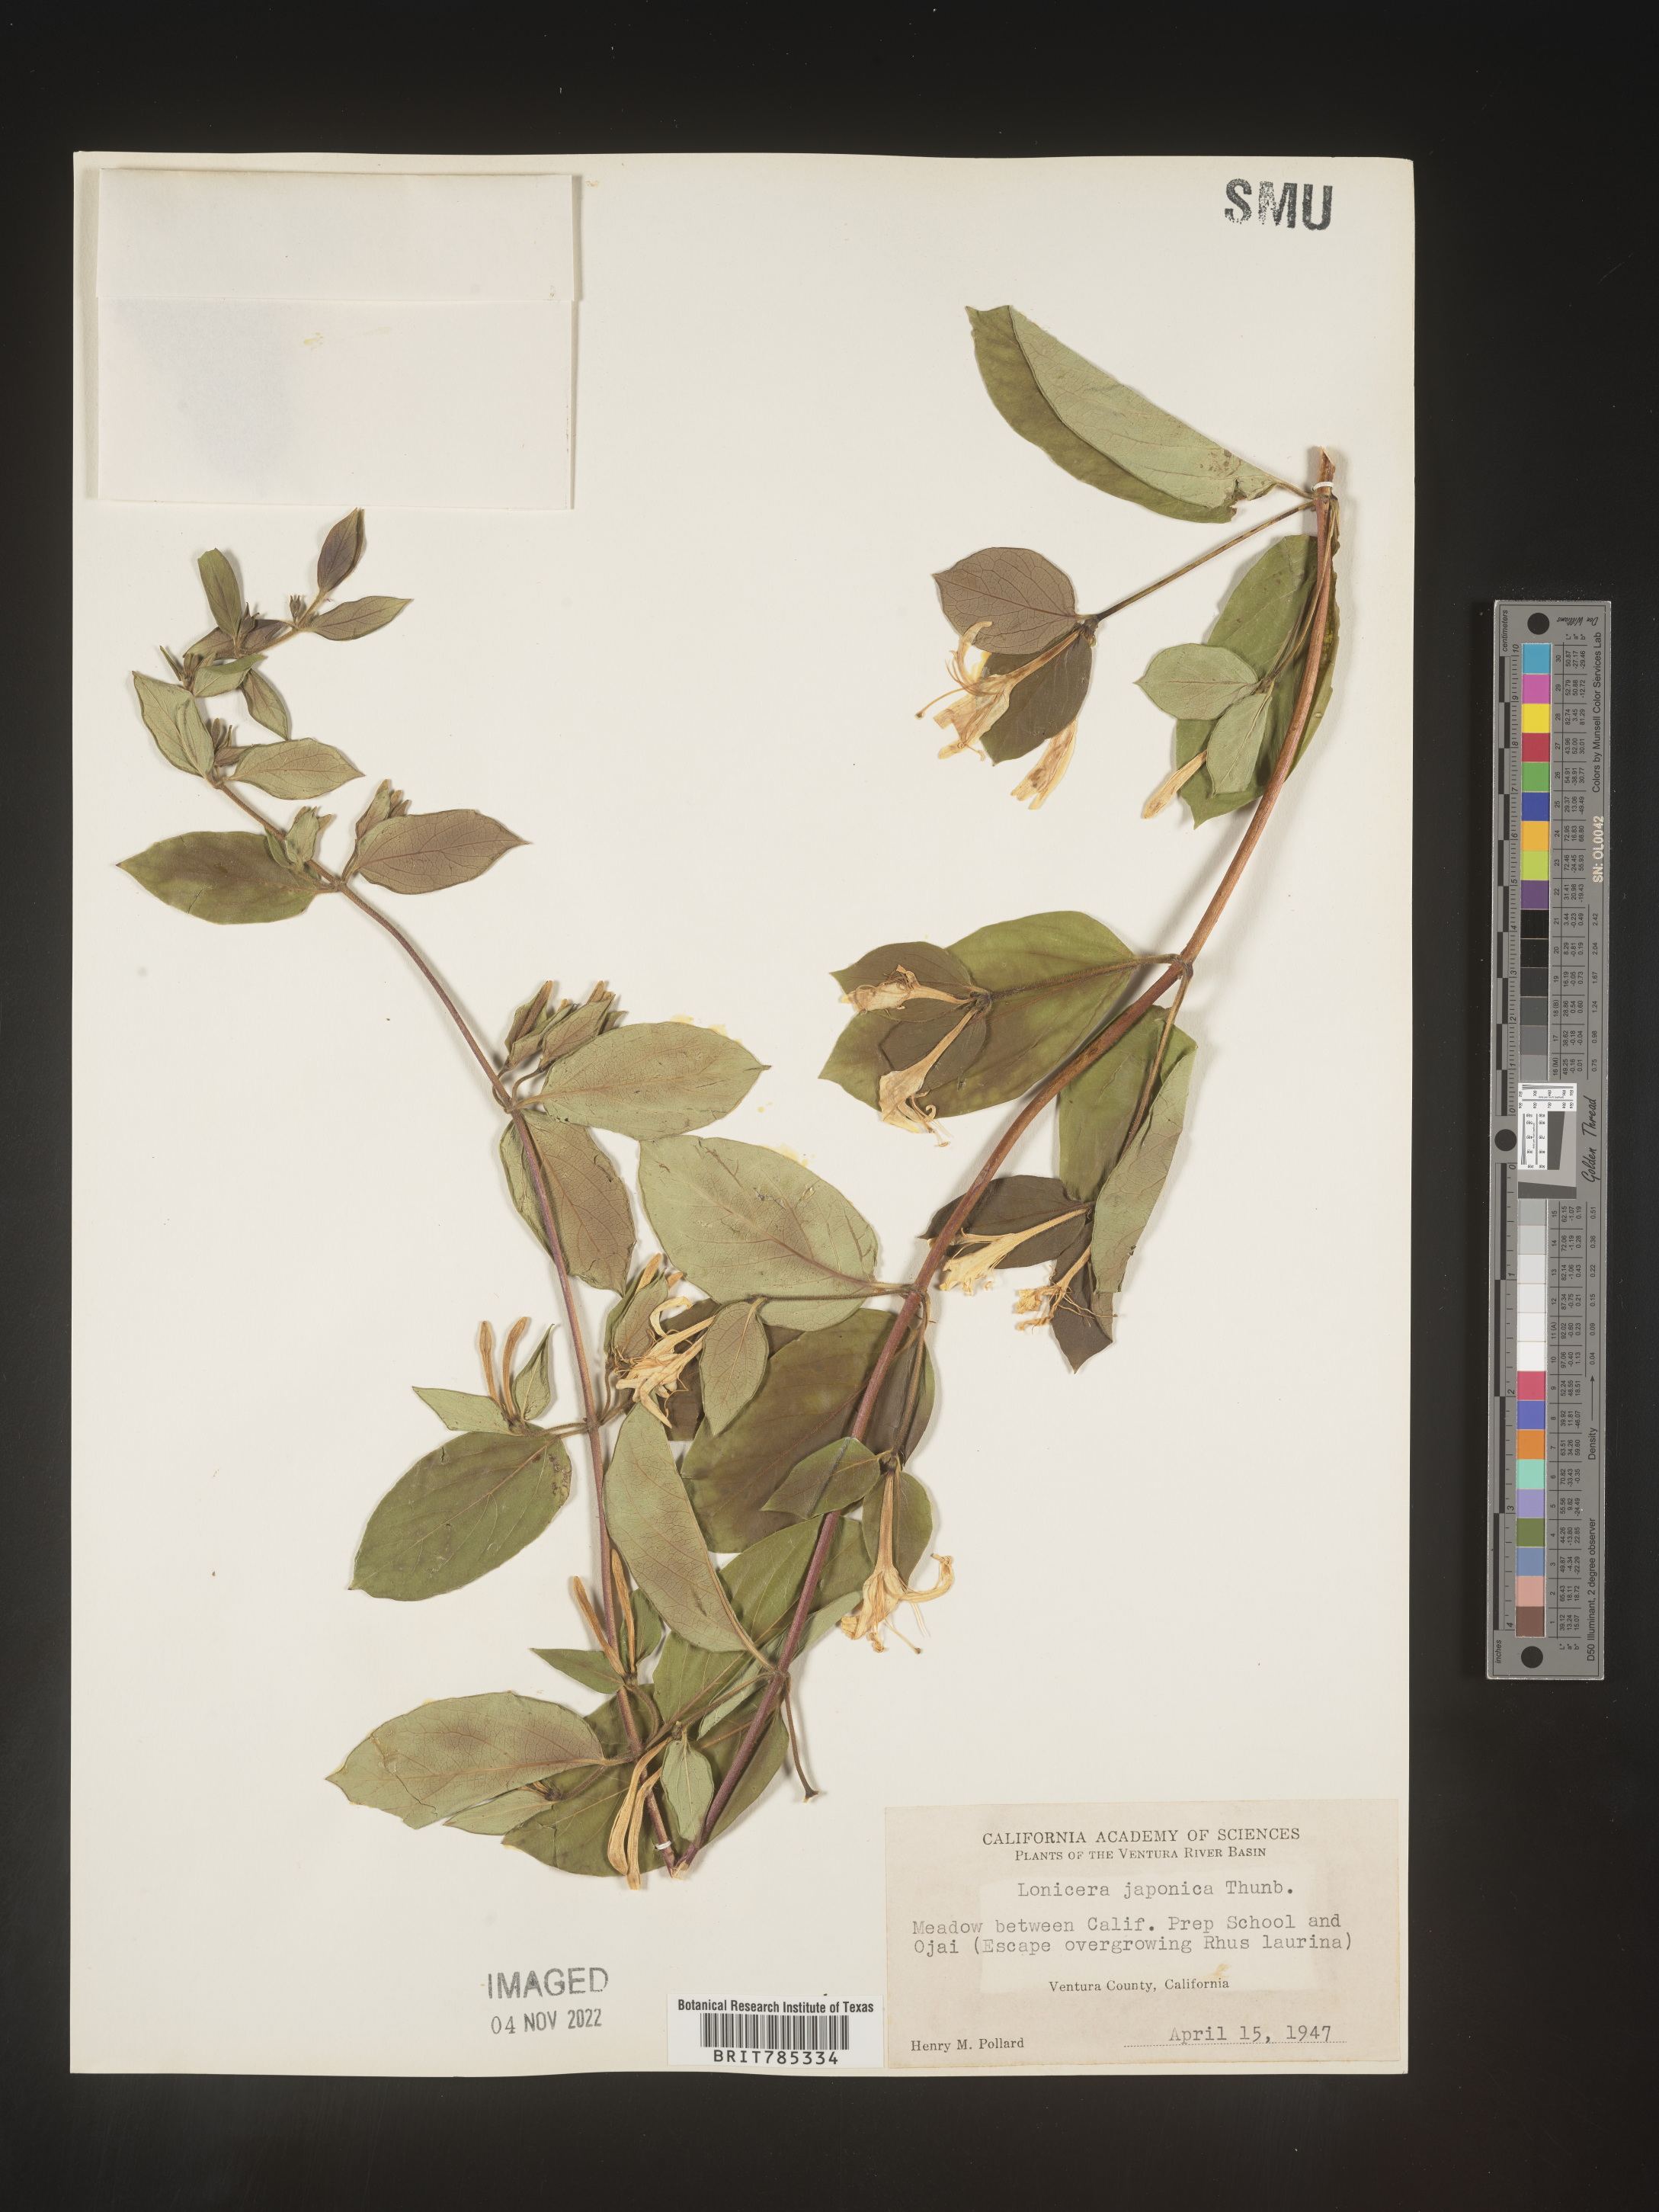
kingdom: Plantae
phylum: Tracheophyta
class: Magnoliopsida
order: Dipsacales
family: Caprifoliaceae
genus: Lonicera
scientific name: Lonicera japonica
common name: Japanese honeysuckle
